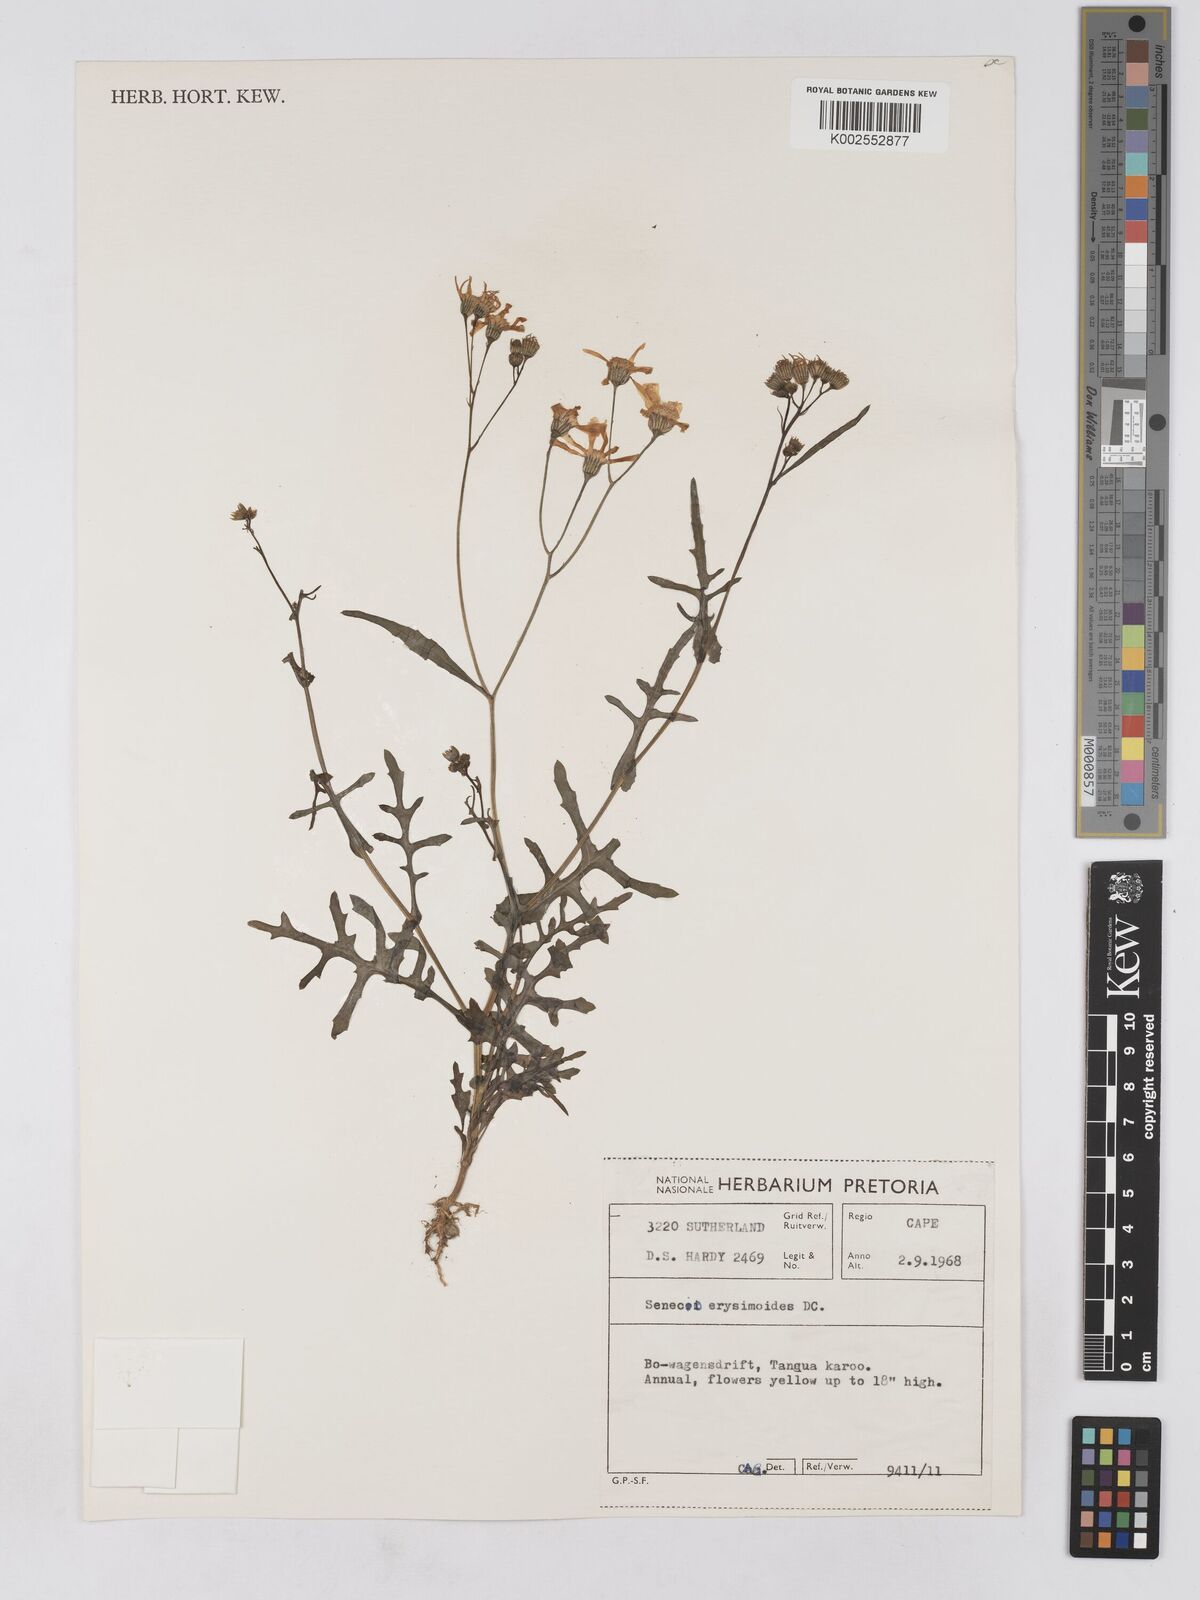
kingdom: Plantae
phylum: Tracheophyta
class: Magnoliopsida
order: Asterales
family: Asteraceae
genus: Senecio
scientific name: Senecio erysimoides
